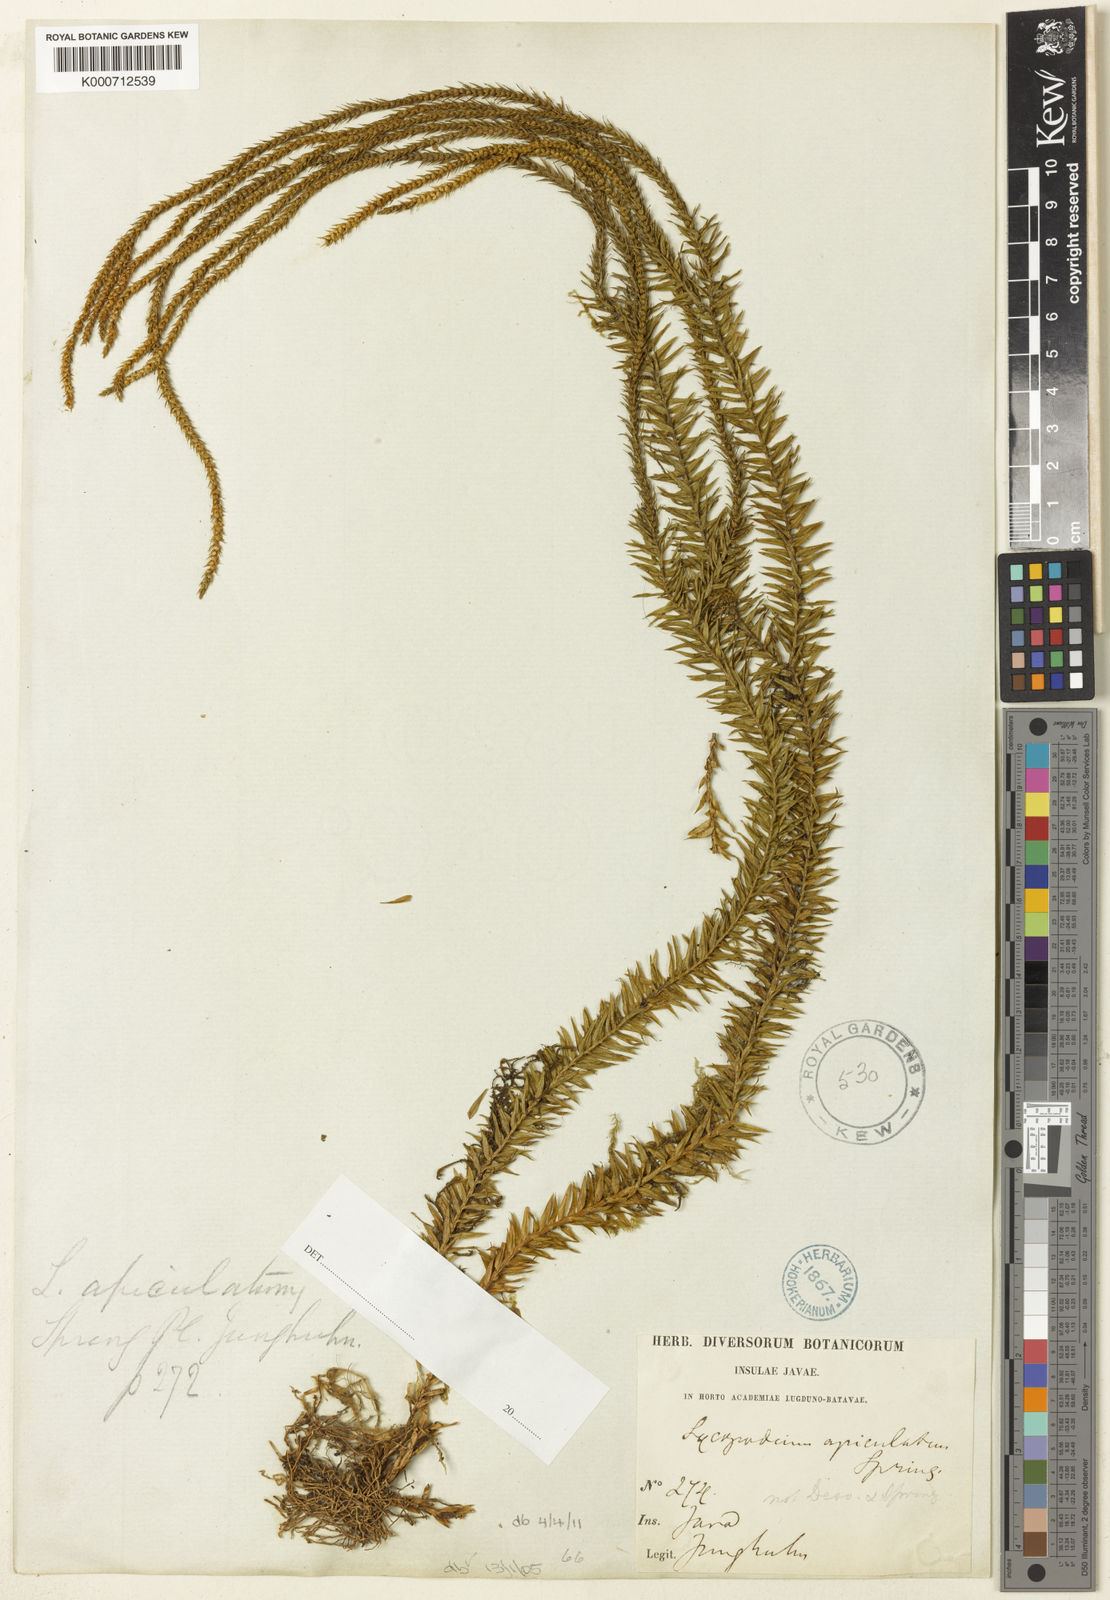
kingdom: Plantae
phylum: Tracheophyta
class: Lycopodiopsida
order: Lycopodiales
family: Lycopodiaceae
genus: Phlegmariurus
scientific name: Phlegmariurus proliferus
